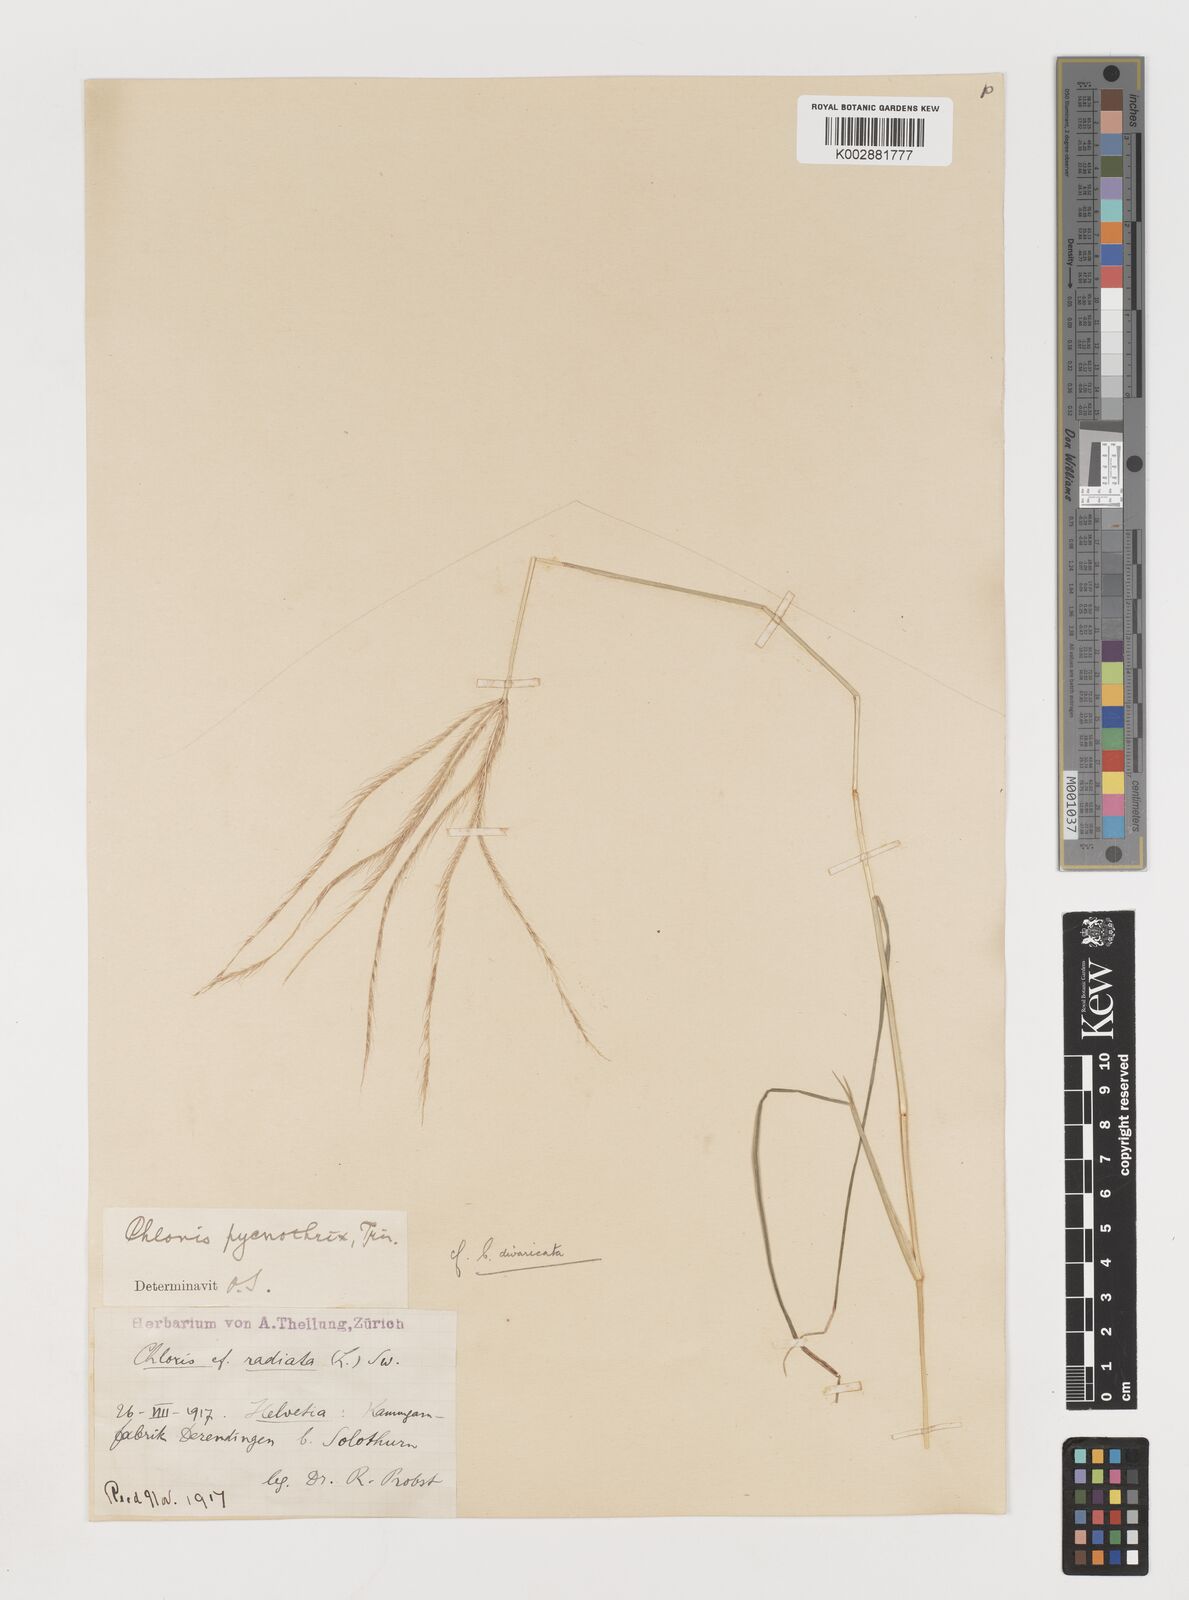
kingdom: Plantae
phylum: Tracheophyta
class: Liliopsida
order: Poales
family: Poaceae
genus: Chloris
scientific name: Chloris divaricata
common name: Spreading windmill grass
